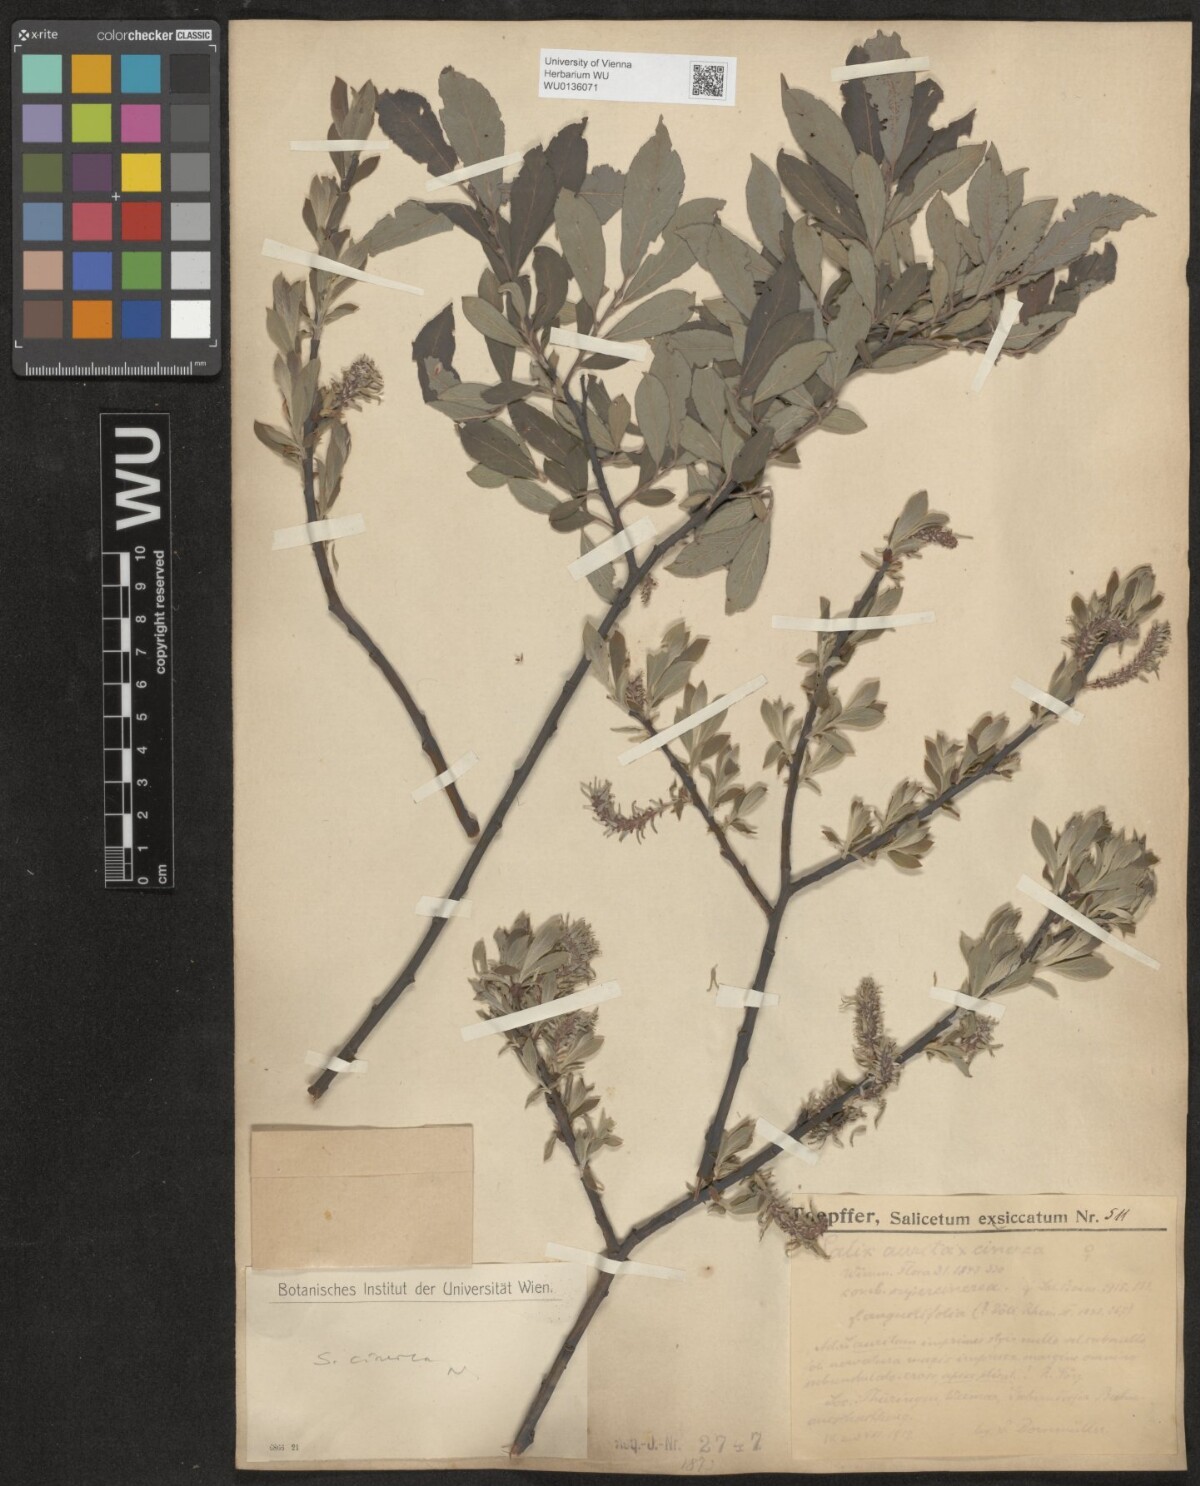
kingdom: Plantae
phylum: Tracheophyta
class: Magnoliopsida
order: Malpighiales
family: Salicaceae
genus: Salix
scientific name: Salix cinerea
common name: Common sallow
